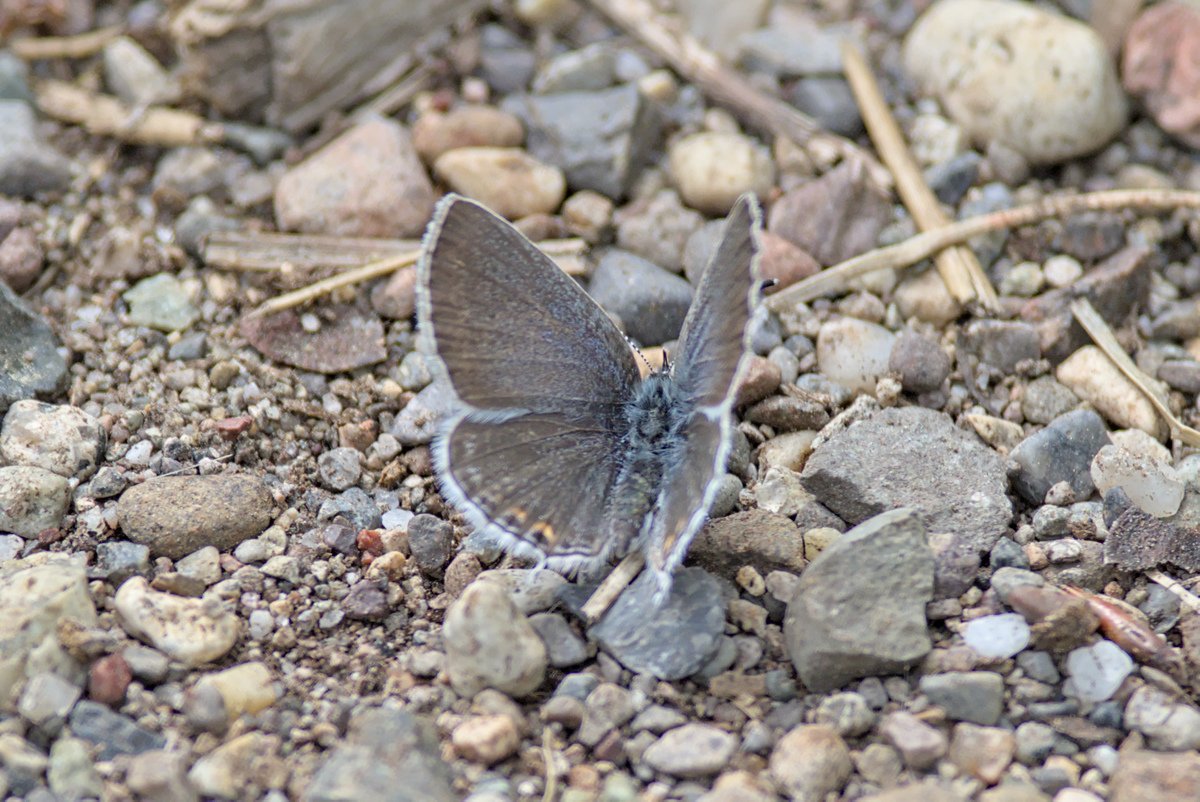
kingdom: Animalia
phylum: Arthropoda
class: Insecta
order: Lepidoptera
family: Lycaenidae
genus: Elkalyce
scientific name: Elkalyce amyntula
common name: Western Tailed-Blue
